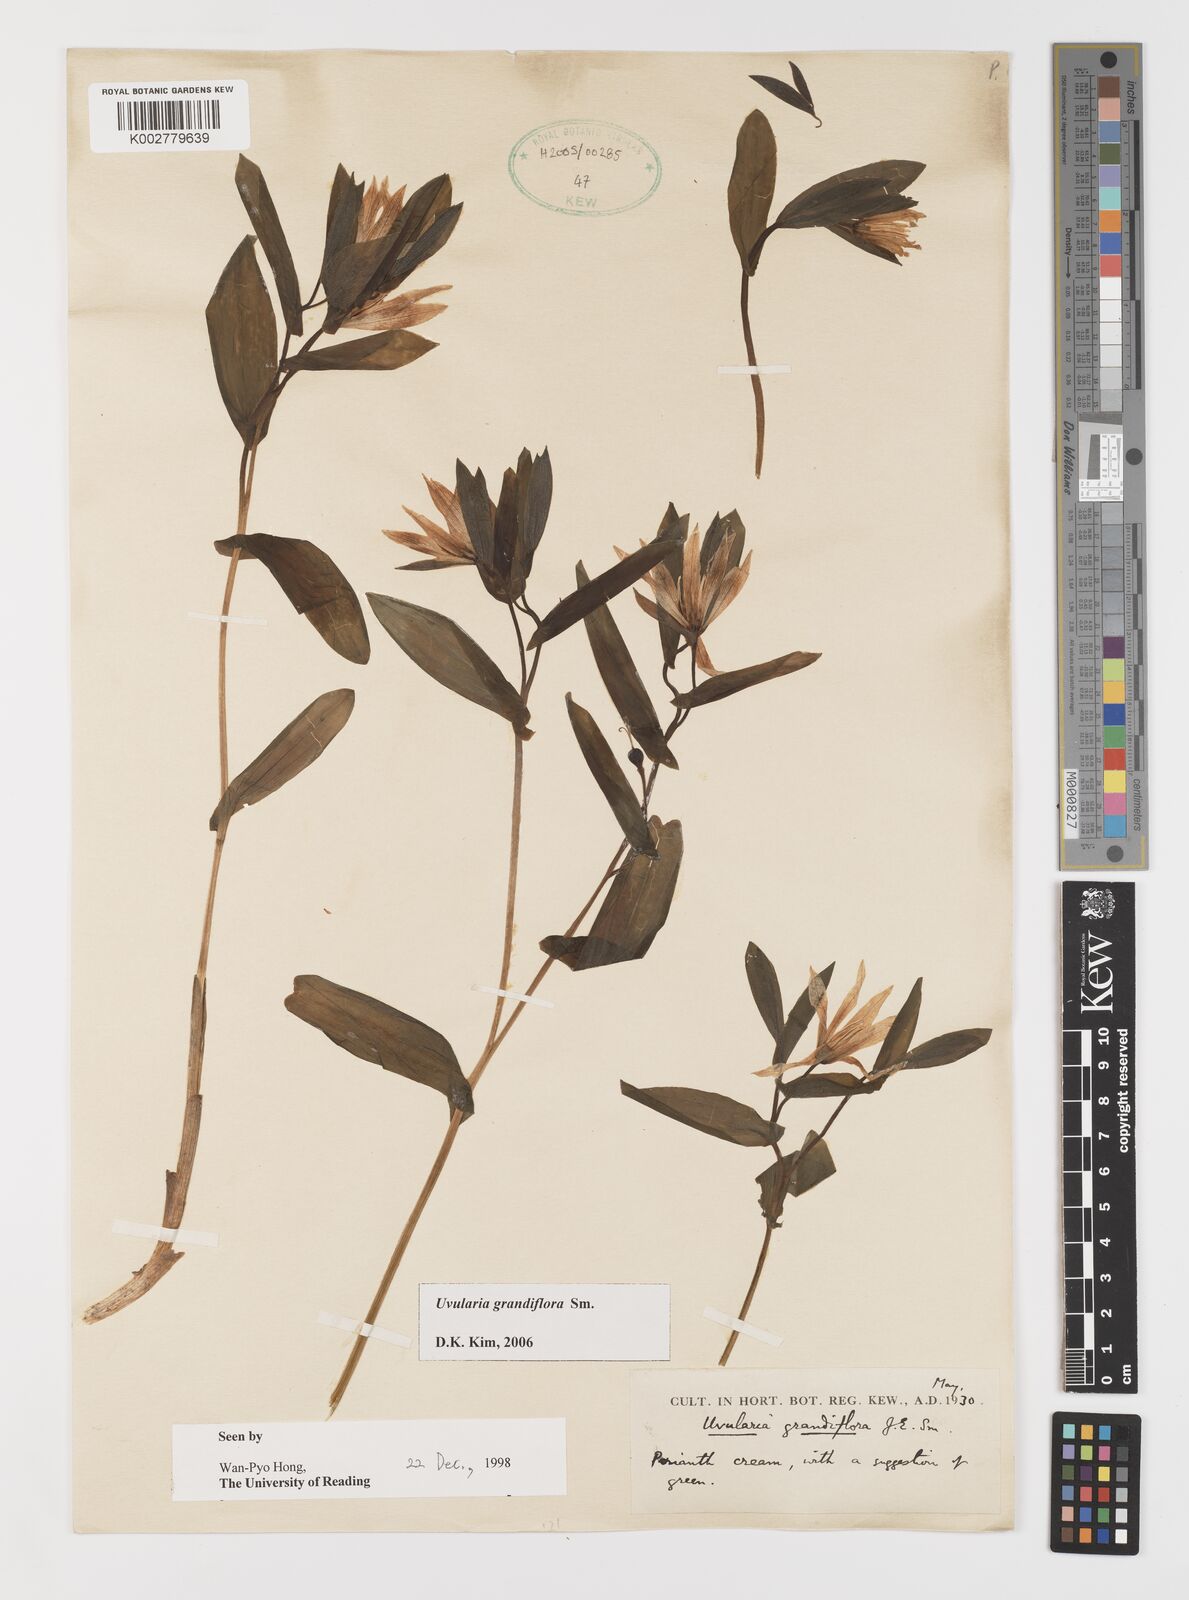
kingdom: Plantae
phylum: Tracheophyta
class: Liliopsida
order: Liliales
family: Colchicaceae
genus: Uvularia
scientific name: Uvularia grandiflora
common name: Bellwort
